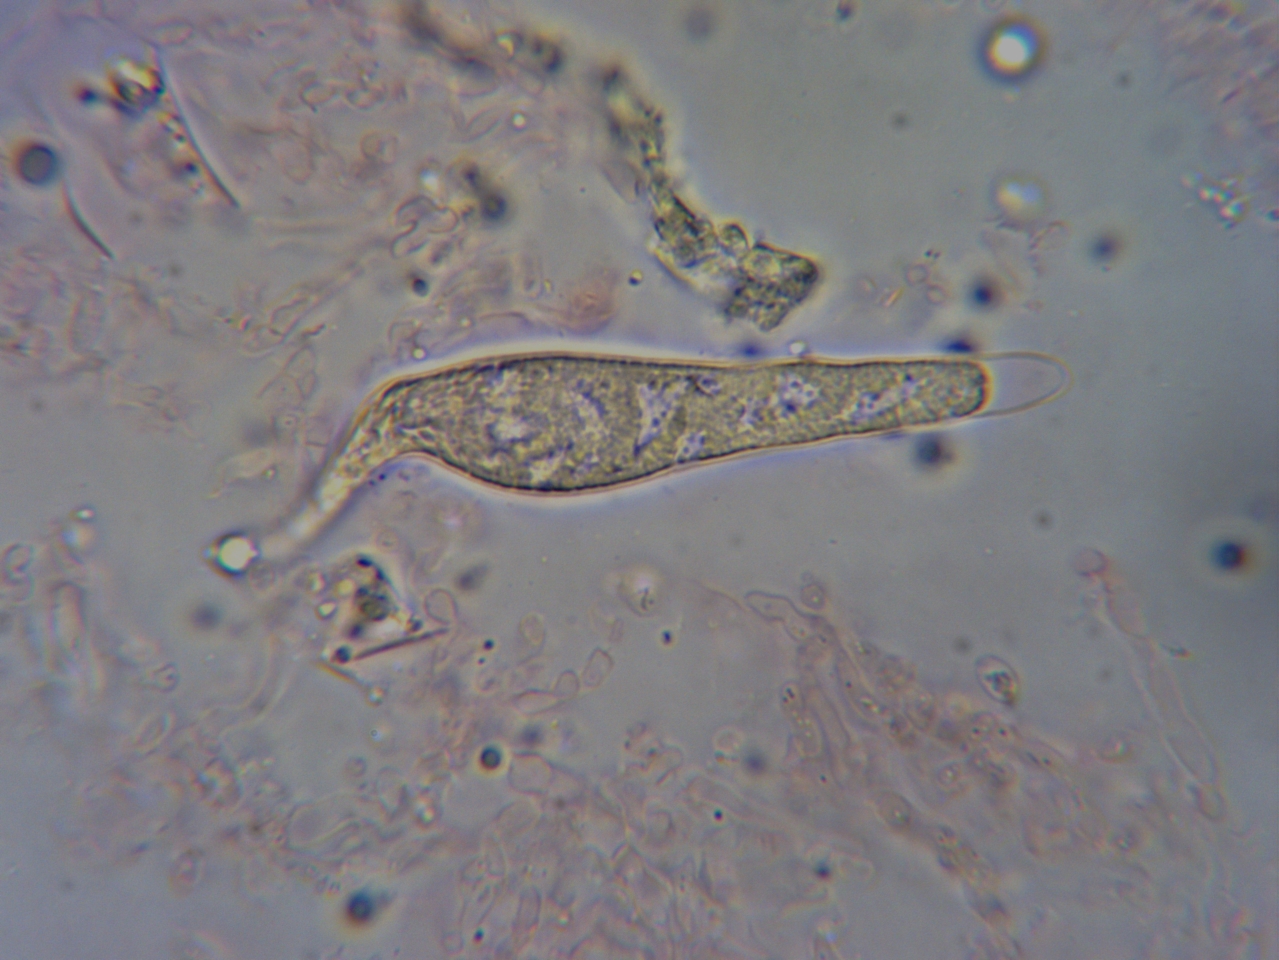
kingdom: Fungi
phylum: Basidiomycota
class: Agaricomycetes
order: Russulales
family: Stereaceae
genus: Gloeocystidiellum
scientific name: Gloeocystidiellum porosum
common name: mælkehvid olieskind
